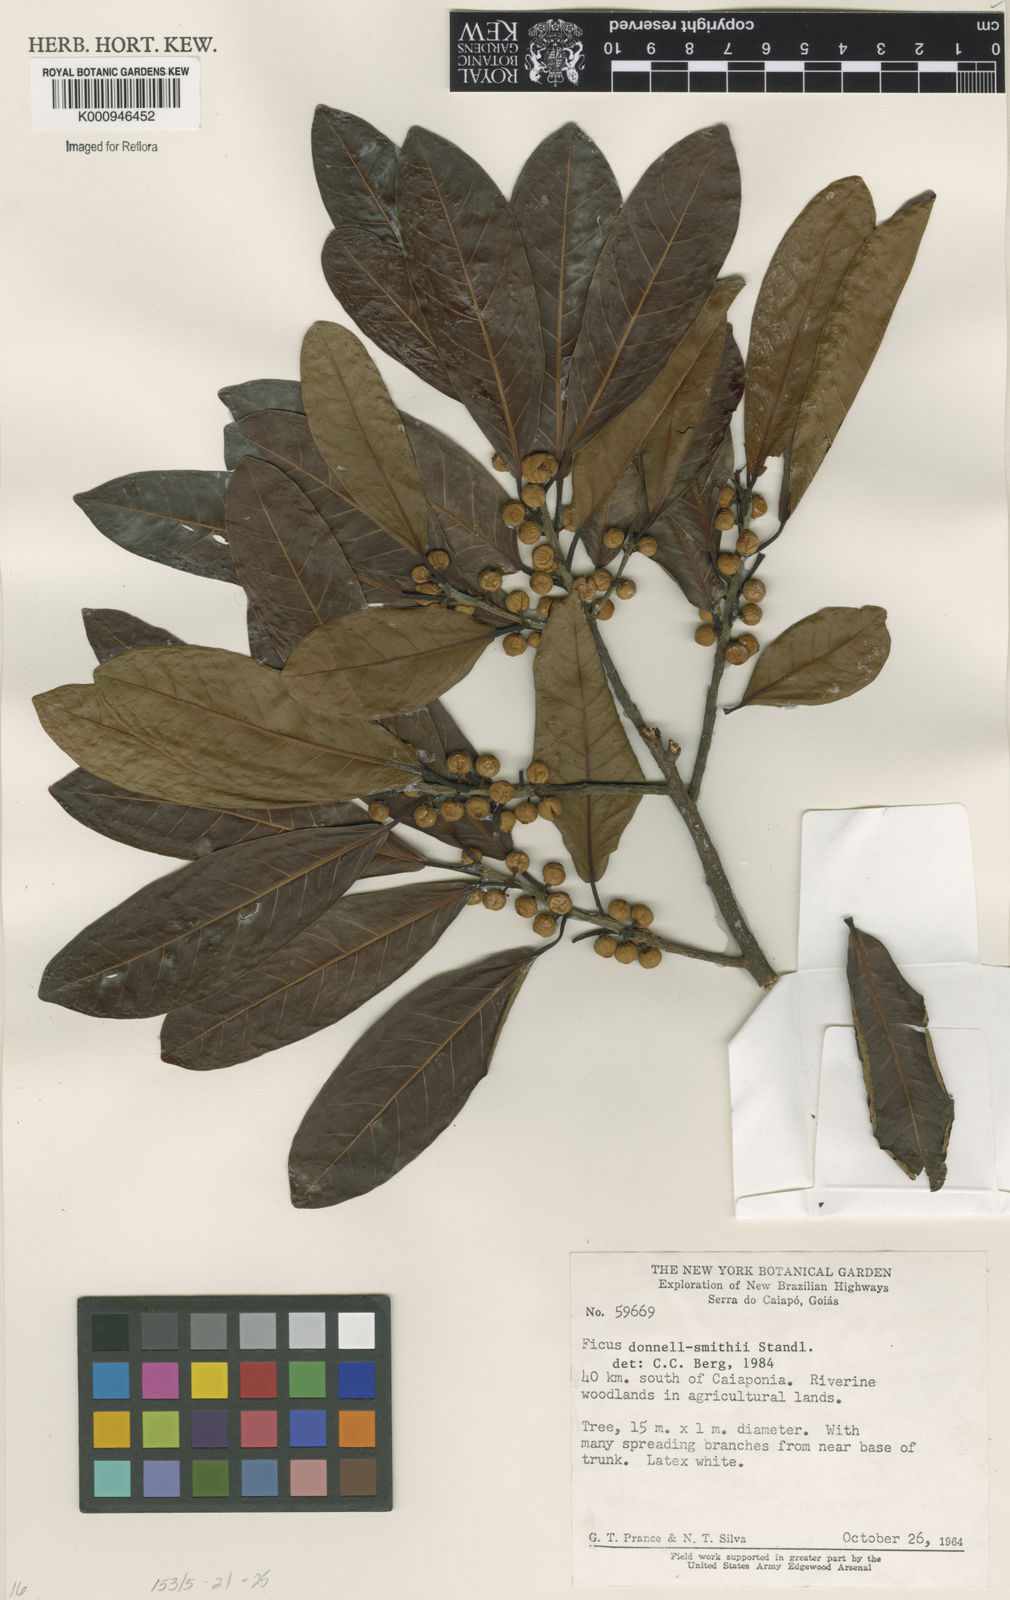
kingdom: Plantae
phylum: Tracheophyta
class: Magnoliopsida
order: Rosales
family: Moraceae
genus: Ficus
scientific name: Ficus donnell-smithii
